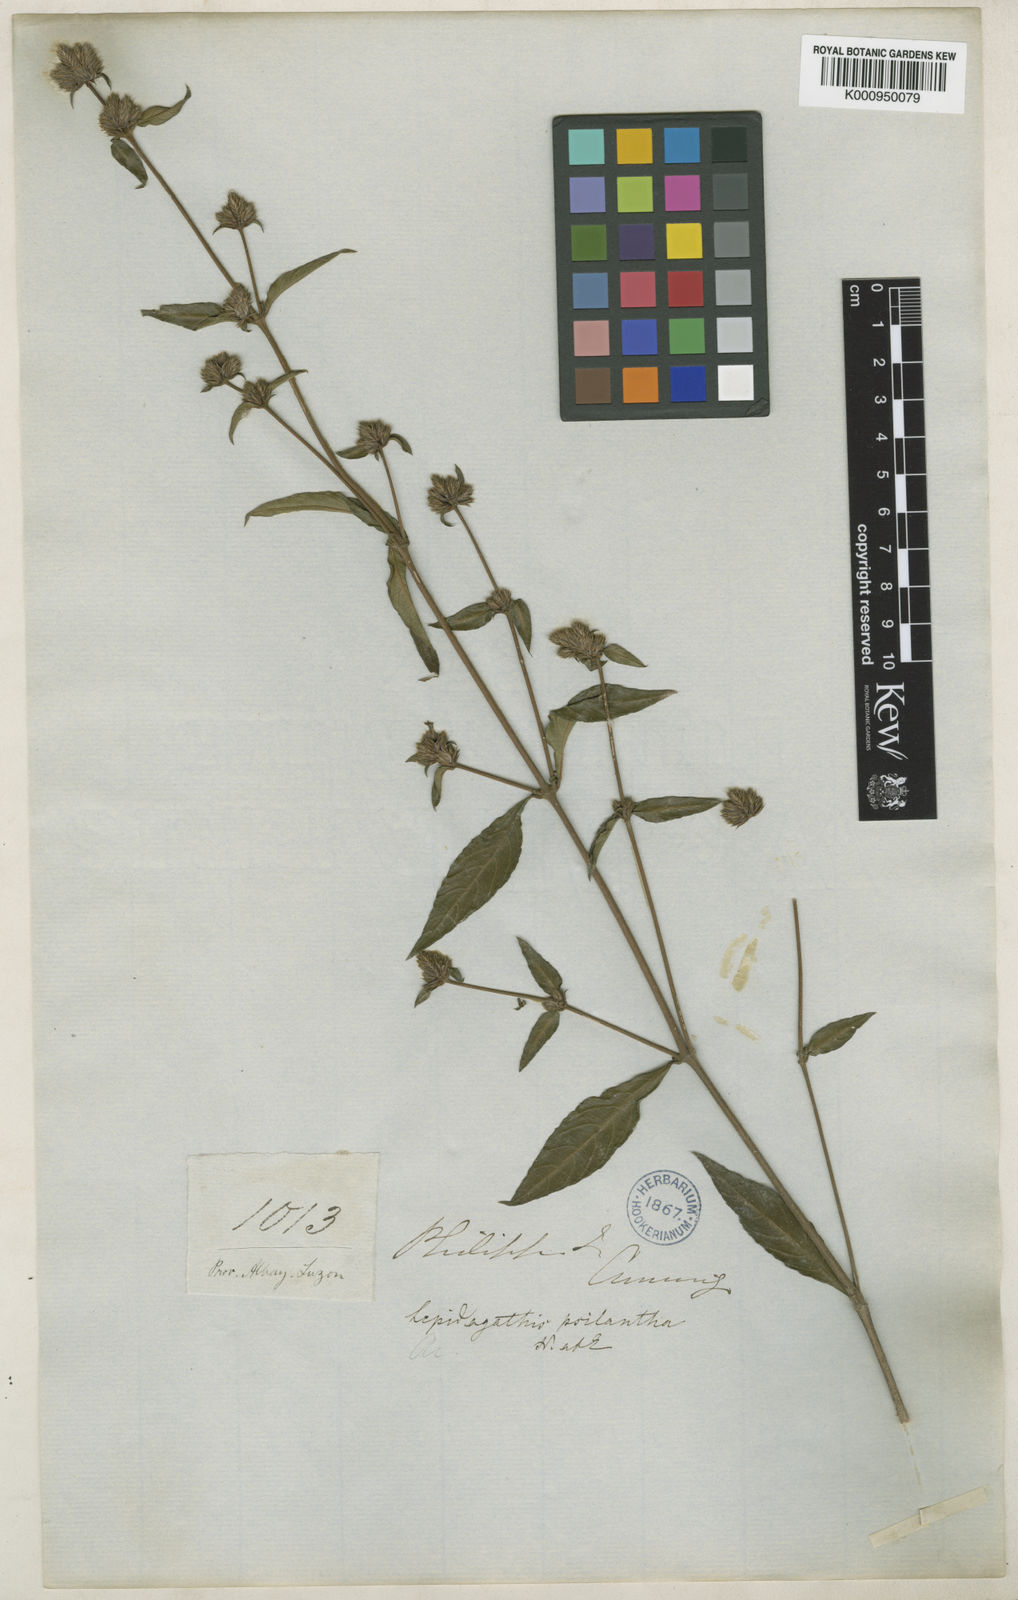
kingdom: Plantae
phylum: Tracheophyta
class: Magnoliopsida
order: Lamiales
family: Acanthaceae
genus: Lepidagathis
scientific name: Lepidagathis psilantha
